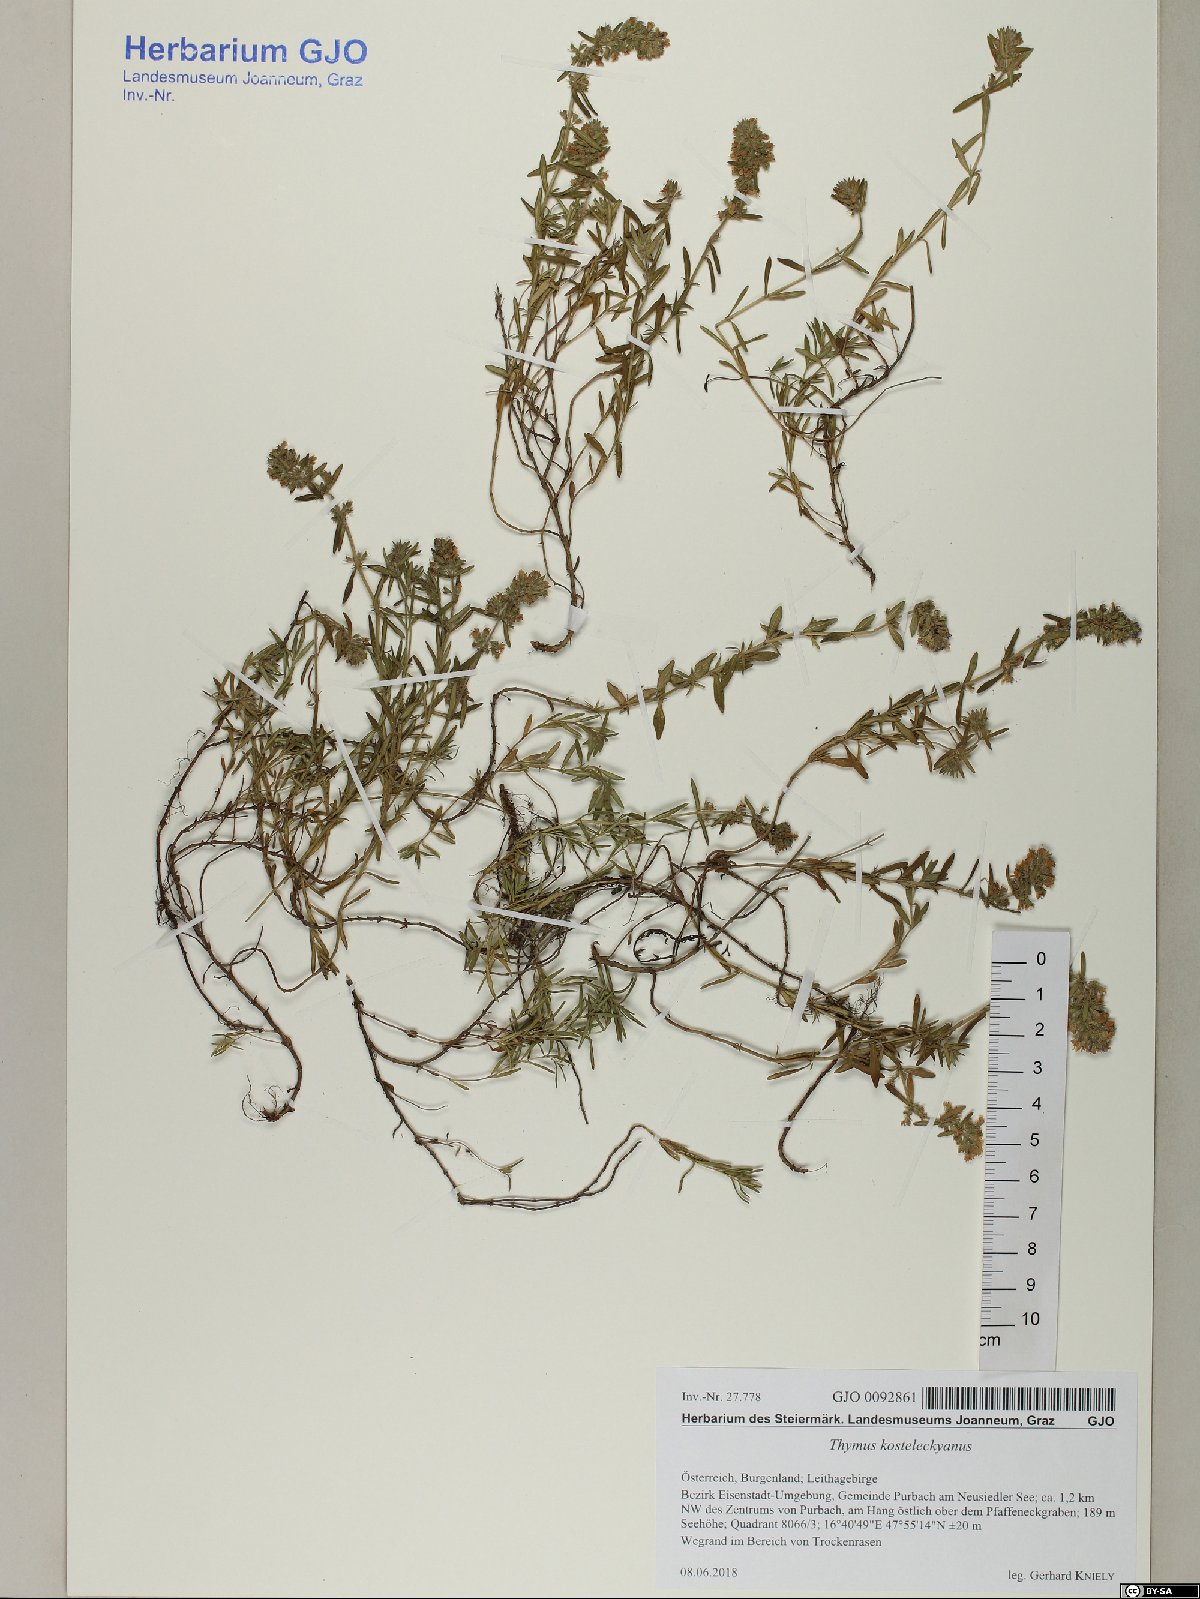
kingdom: Plantae
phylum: Tracheophyta
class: Magnoliopsida
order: Lamiales
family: Lamiaceae
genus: Thymus
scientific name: Thymus kosteleckyanus
